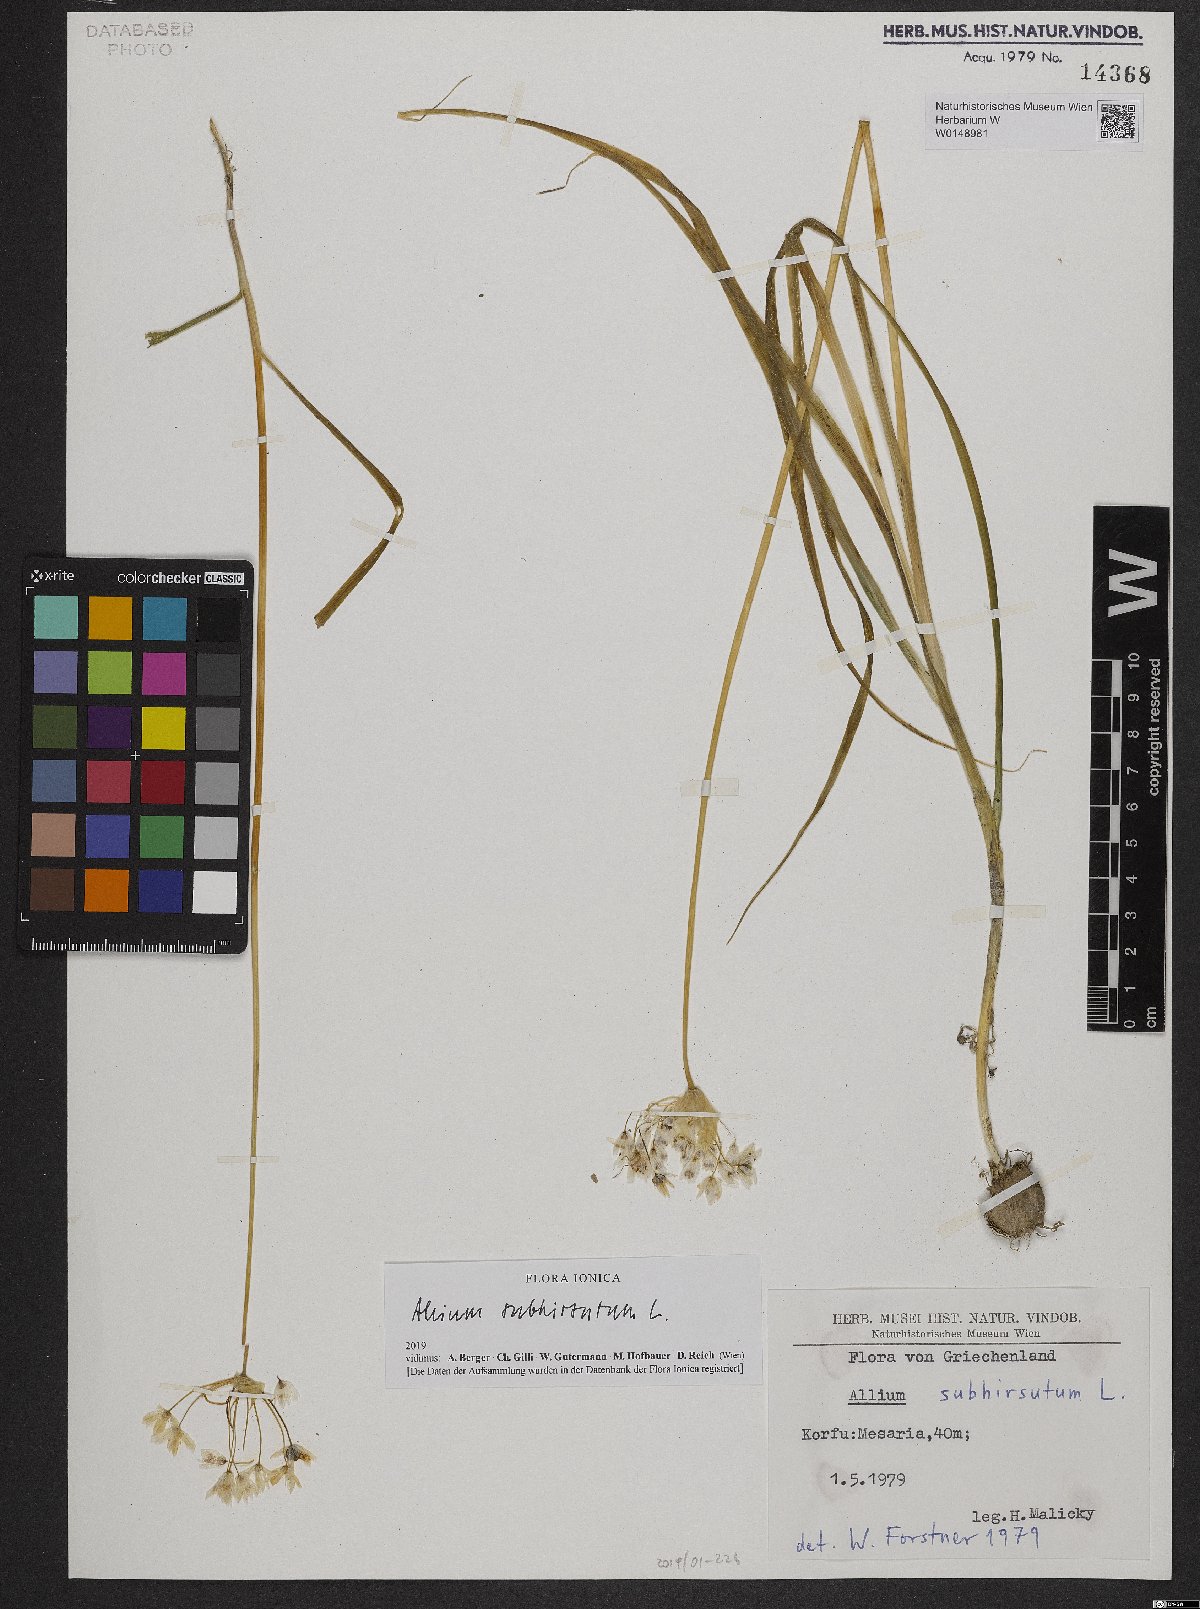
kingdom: Plantae
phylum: Tracheophyta
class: Liliopsida
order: Asparagales
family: Amaryllidaceae
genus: Allium
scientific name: Allium subhirsutum
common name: Hairy garlic
